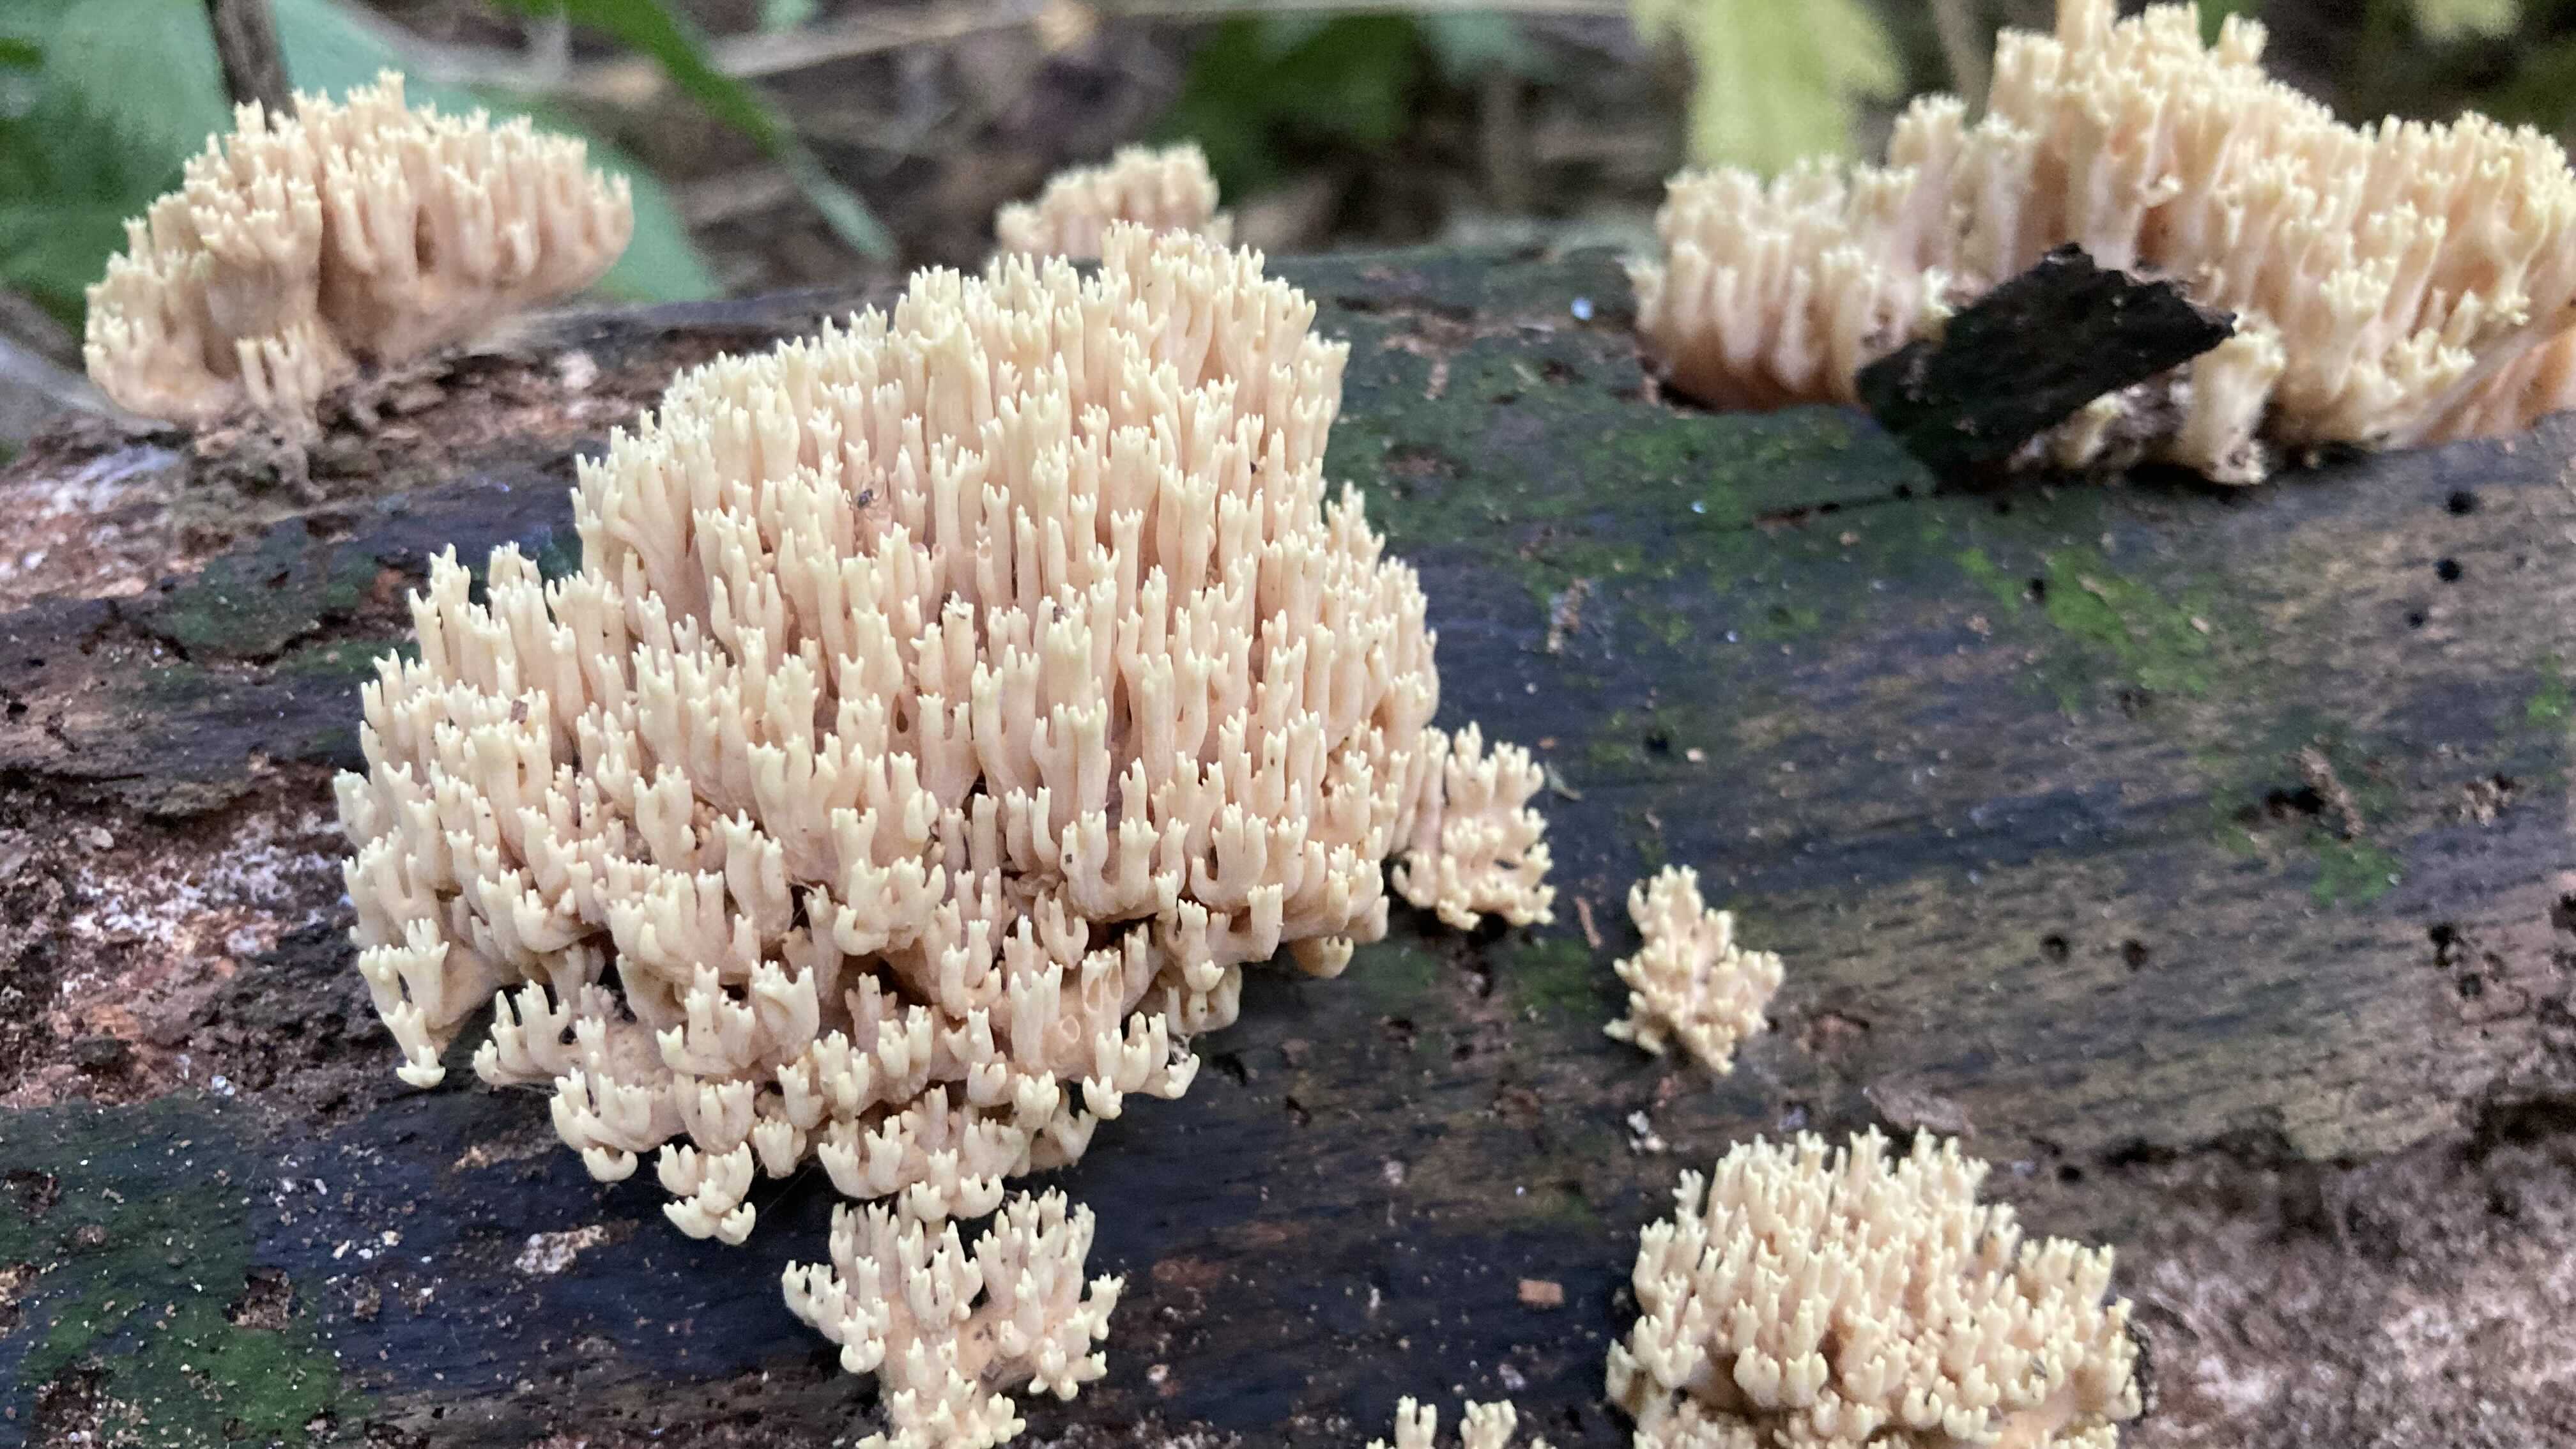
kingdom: Fungi
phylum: Basidiomycota
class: Agaricomycetes
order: Gomphales
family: Gomphaceae
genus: Ramaria
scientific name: Ramaria stricta
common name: rank koralsvamp
